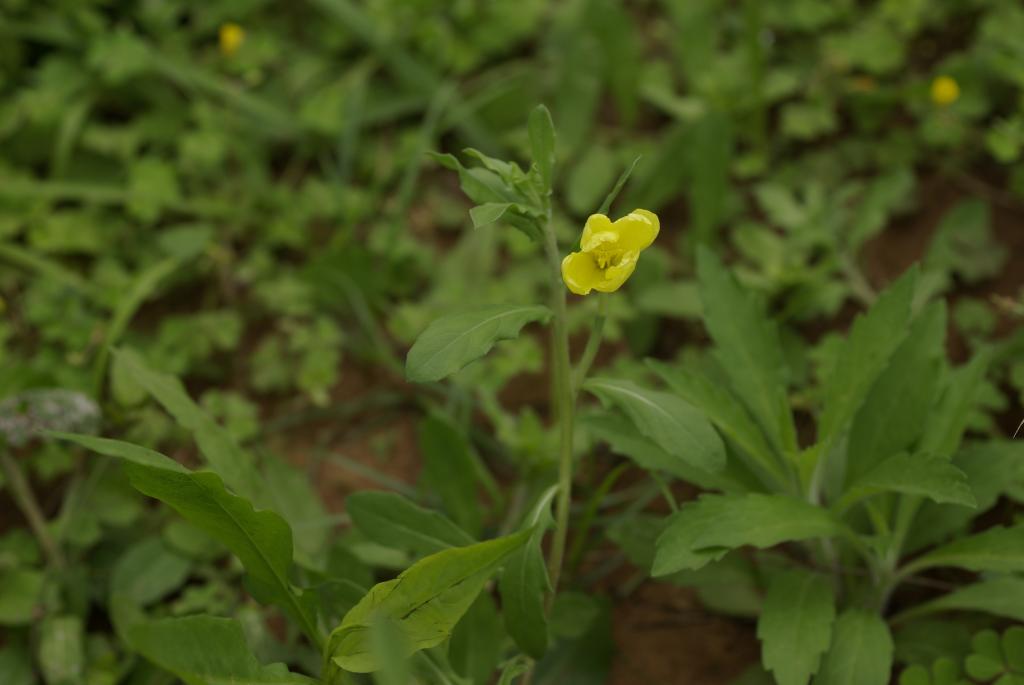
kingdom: Plantae
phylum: Tracheophyta
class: Magnoliopsida
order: Myrtales
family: Onagraceae
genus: Oenothera
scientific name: Oenothera laciniata
